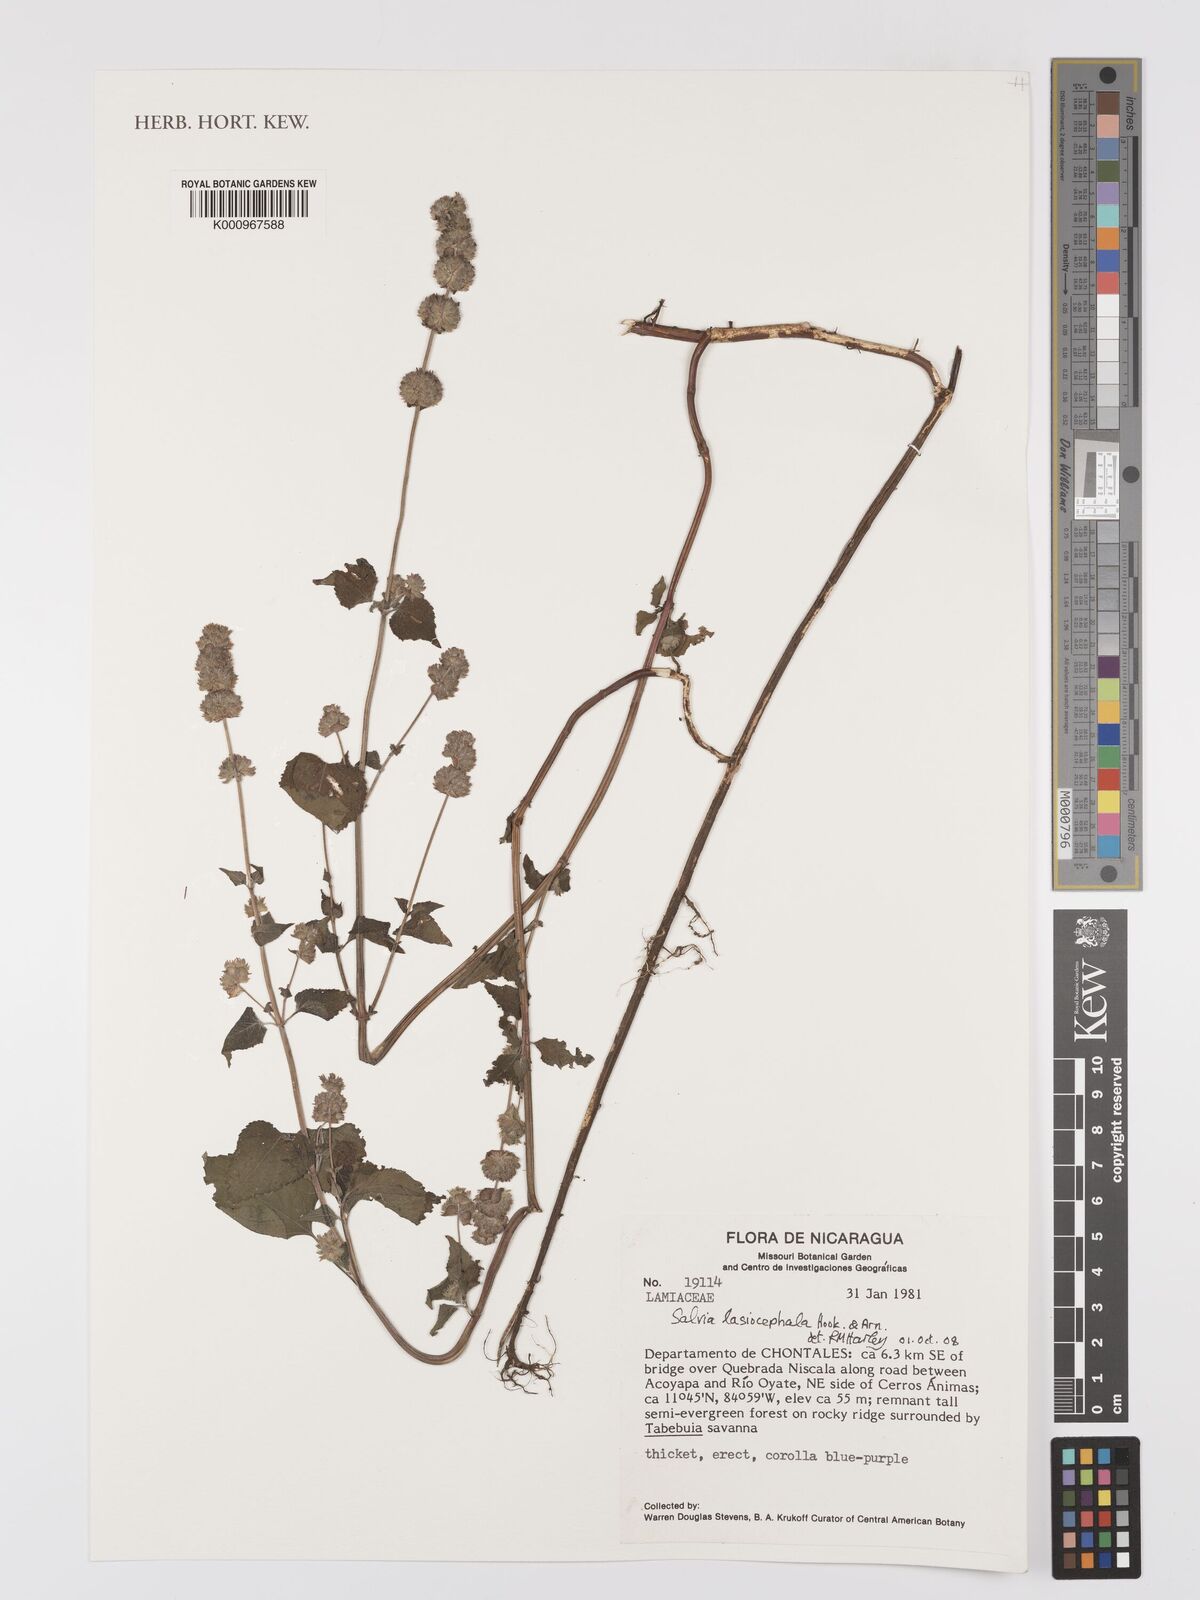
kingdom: Plantae
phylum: Tracheophyta
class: Magnoliopsida
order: Lamiales
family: Lamiaceae
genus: Salvia
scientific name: Salvia lasiocephala
